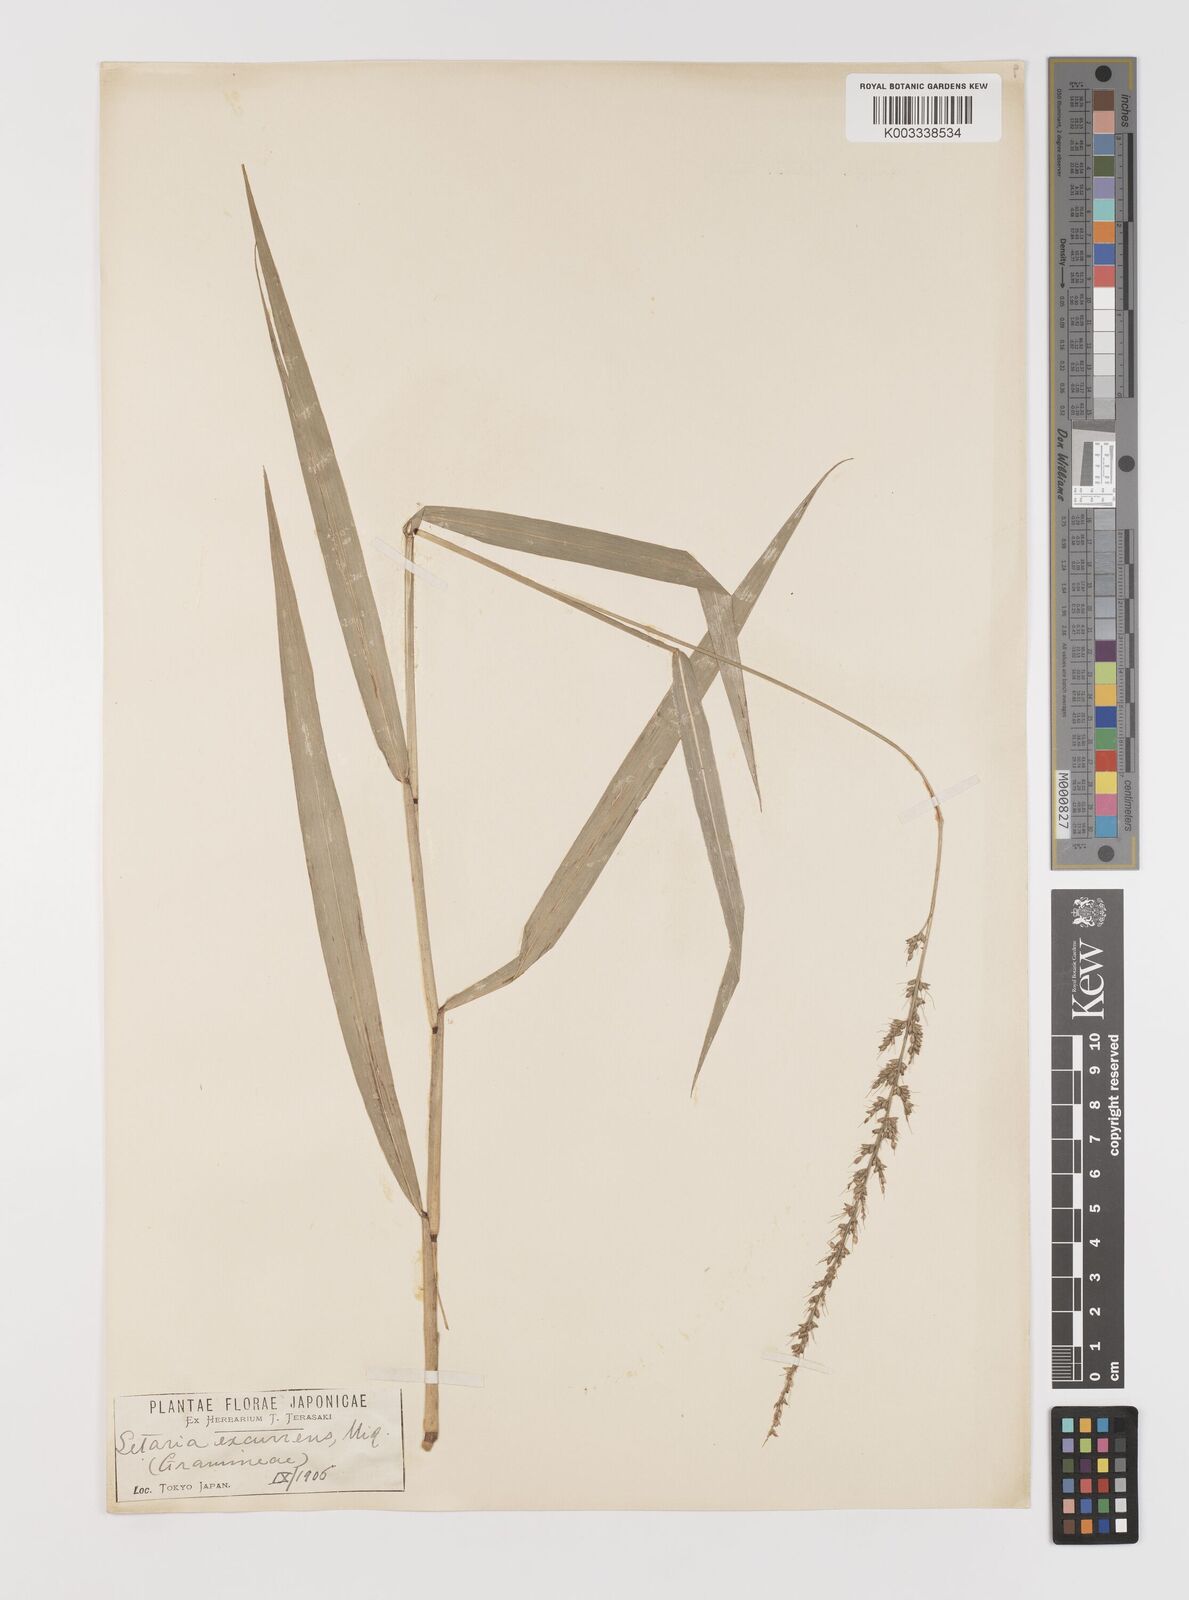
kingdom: Plantae
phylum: Tracheophyta
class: Liliopsida
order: Poales
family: Poaceae
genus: Setaria
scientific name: Setaria chondrachne
